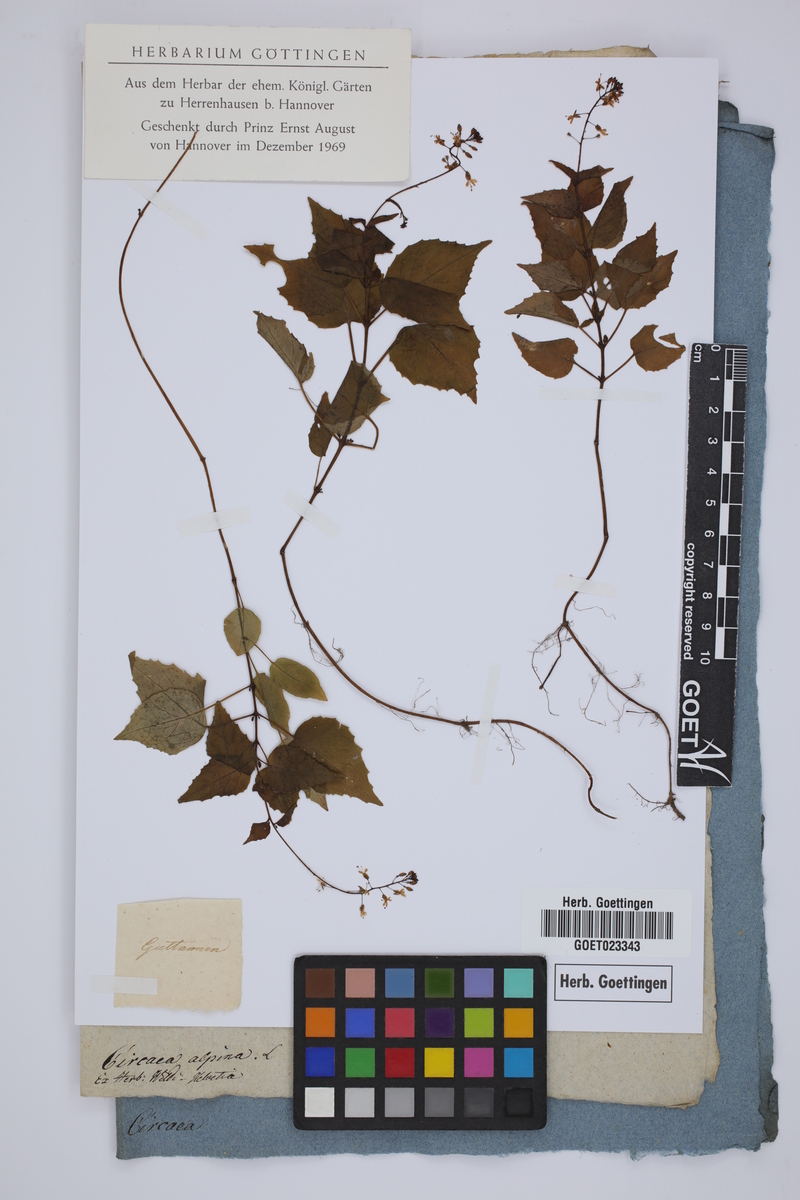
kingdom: Plantae
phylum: Tracheophyta
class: Magnoliopsida
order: Myrtales
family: Onagraceae
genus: Circaea
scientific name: Circaea alpina
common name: Alpine enchanter's-nightshade
